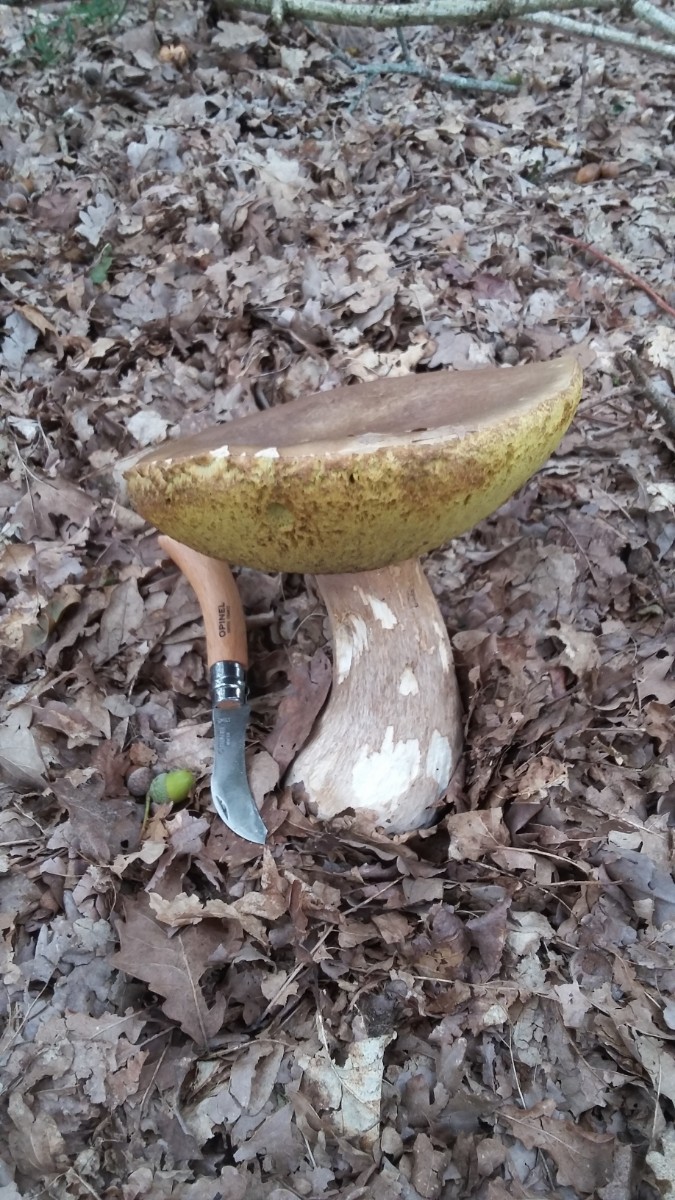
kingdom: Fungi
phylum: Basidiomycota
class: Agaricomycetes
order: Boletales
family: Boletaceae
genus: Boletus
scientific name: Boletus edulis
